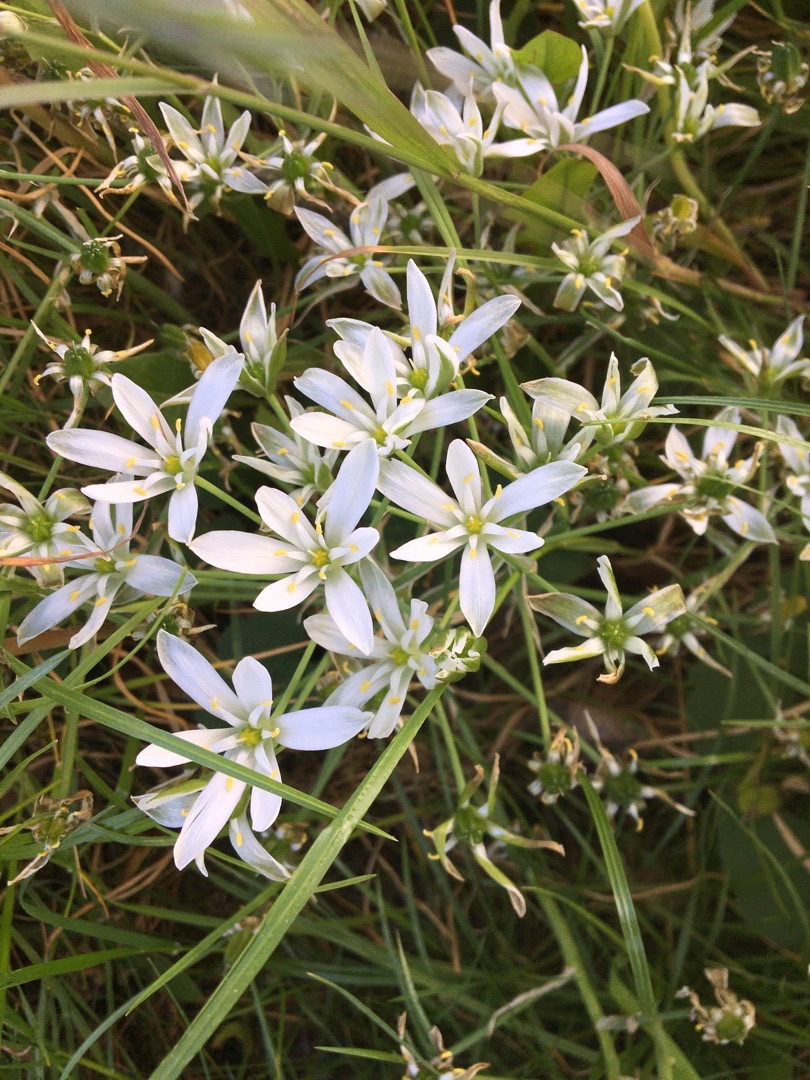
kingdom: Plantae
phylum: Tracheophyta
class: Liliopsida
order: Asparagales
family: Asparagaceae
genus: Ornithogalum
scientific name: Ornithogalum umbellatum
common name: Kost-fuglemælk
